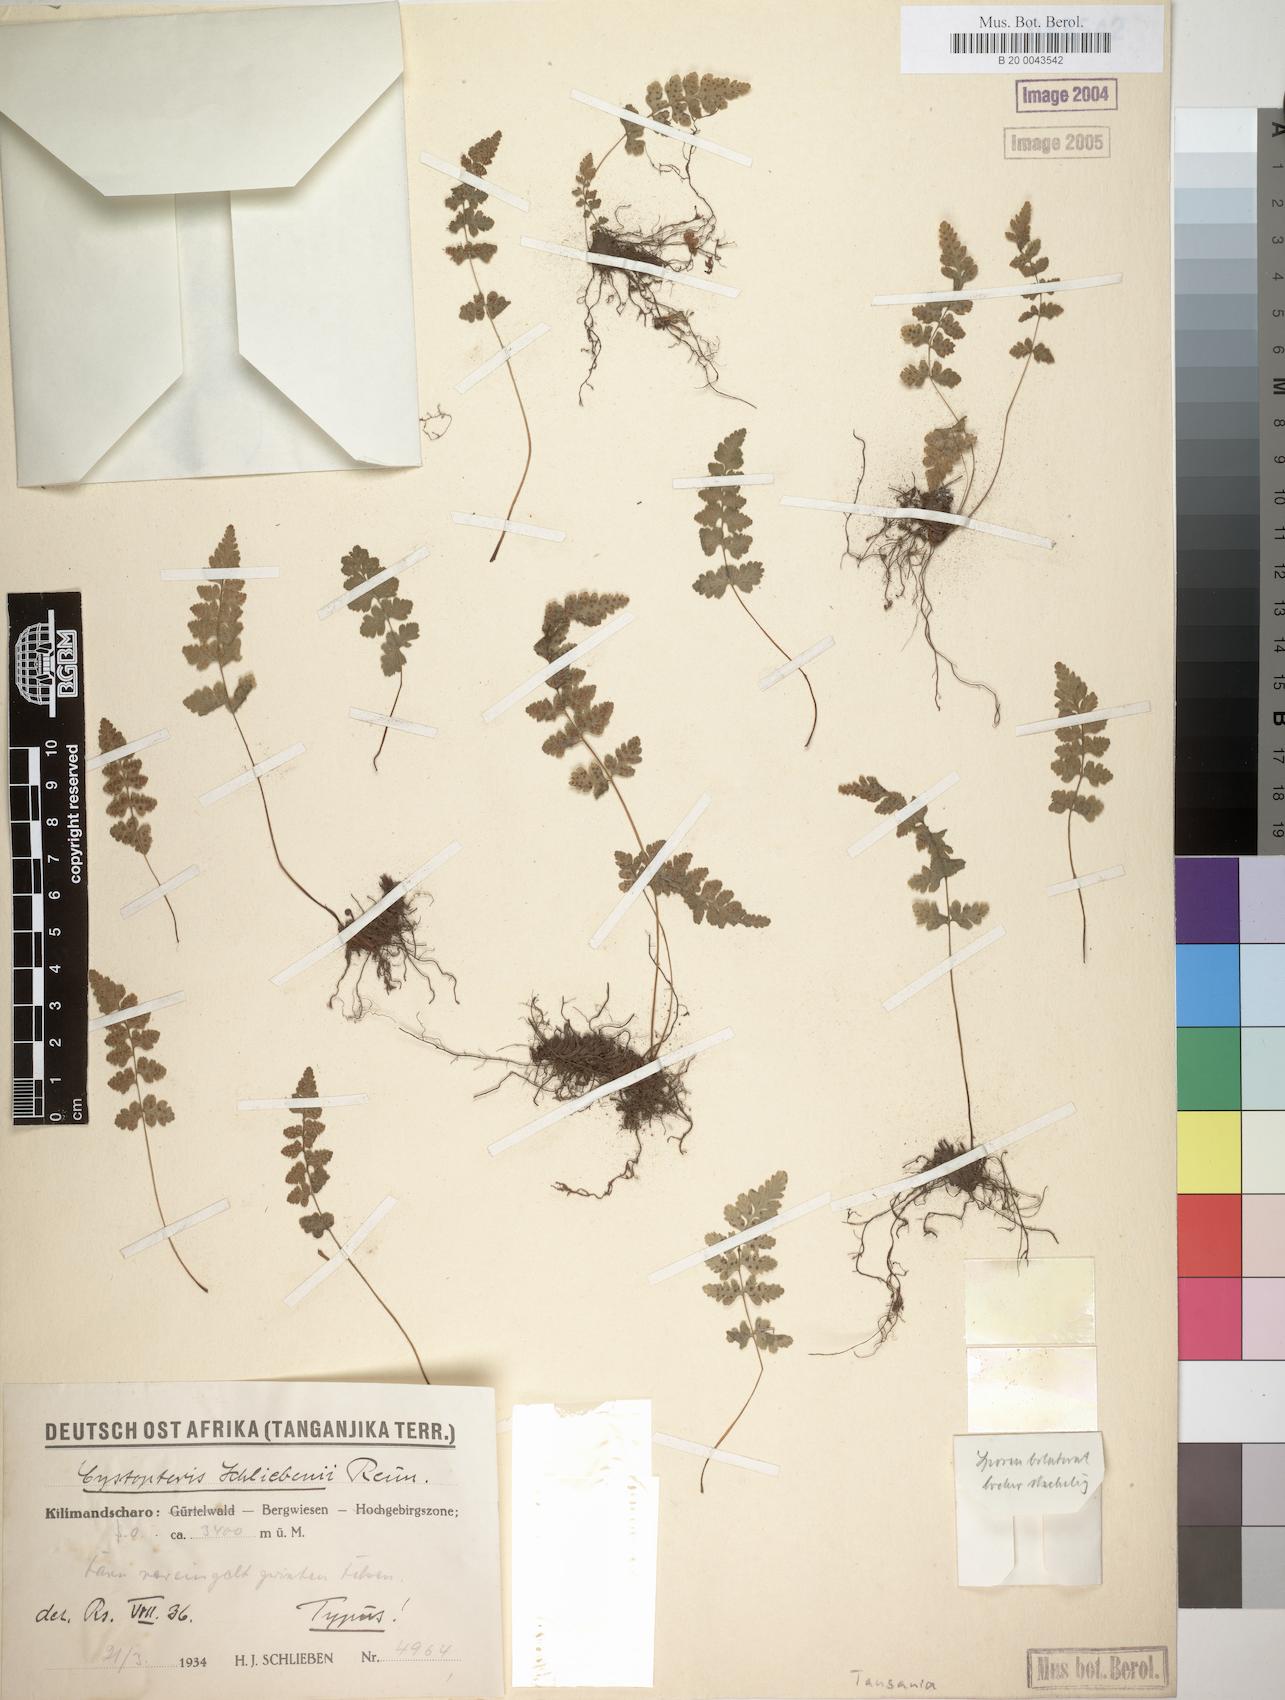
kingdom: Plantae
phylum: Tracheophyta
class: Polypodiopsida
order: Polypodiales
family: Cystopteridaceae
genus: Cystopteris
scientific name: Cystopteris
